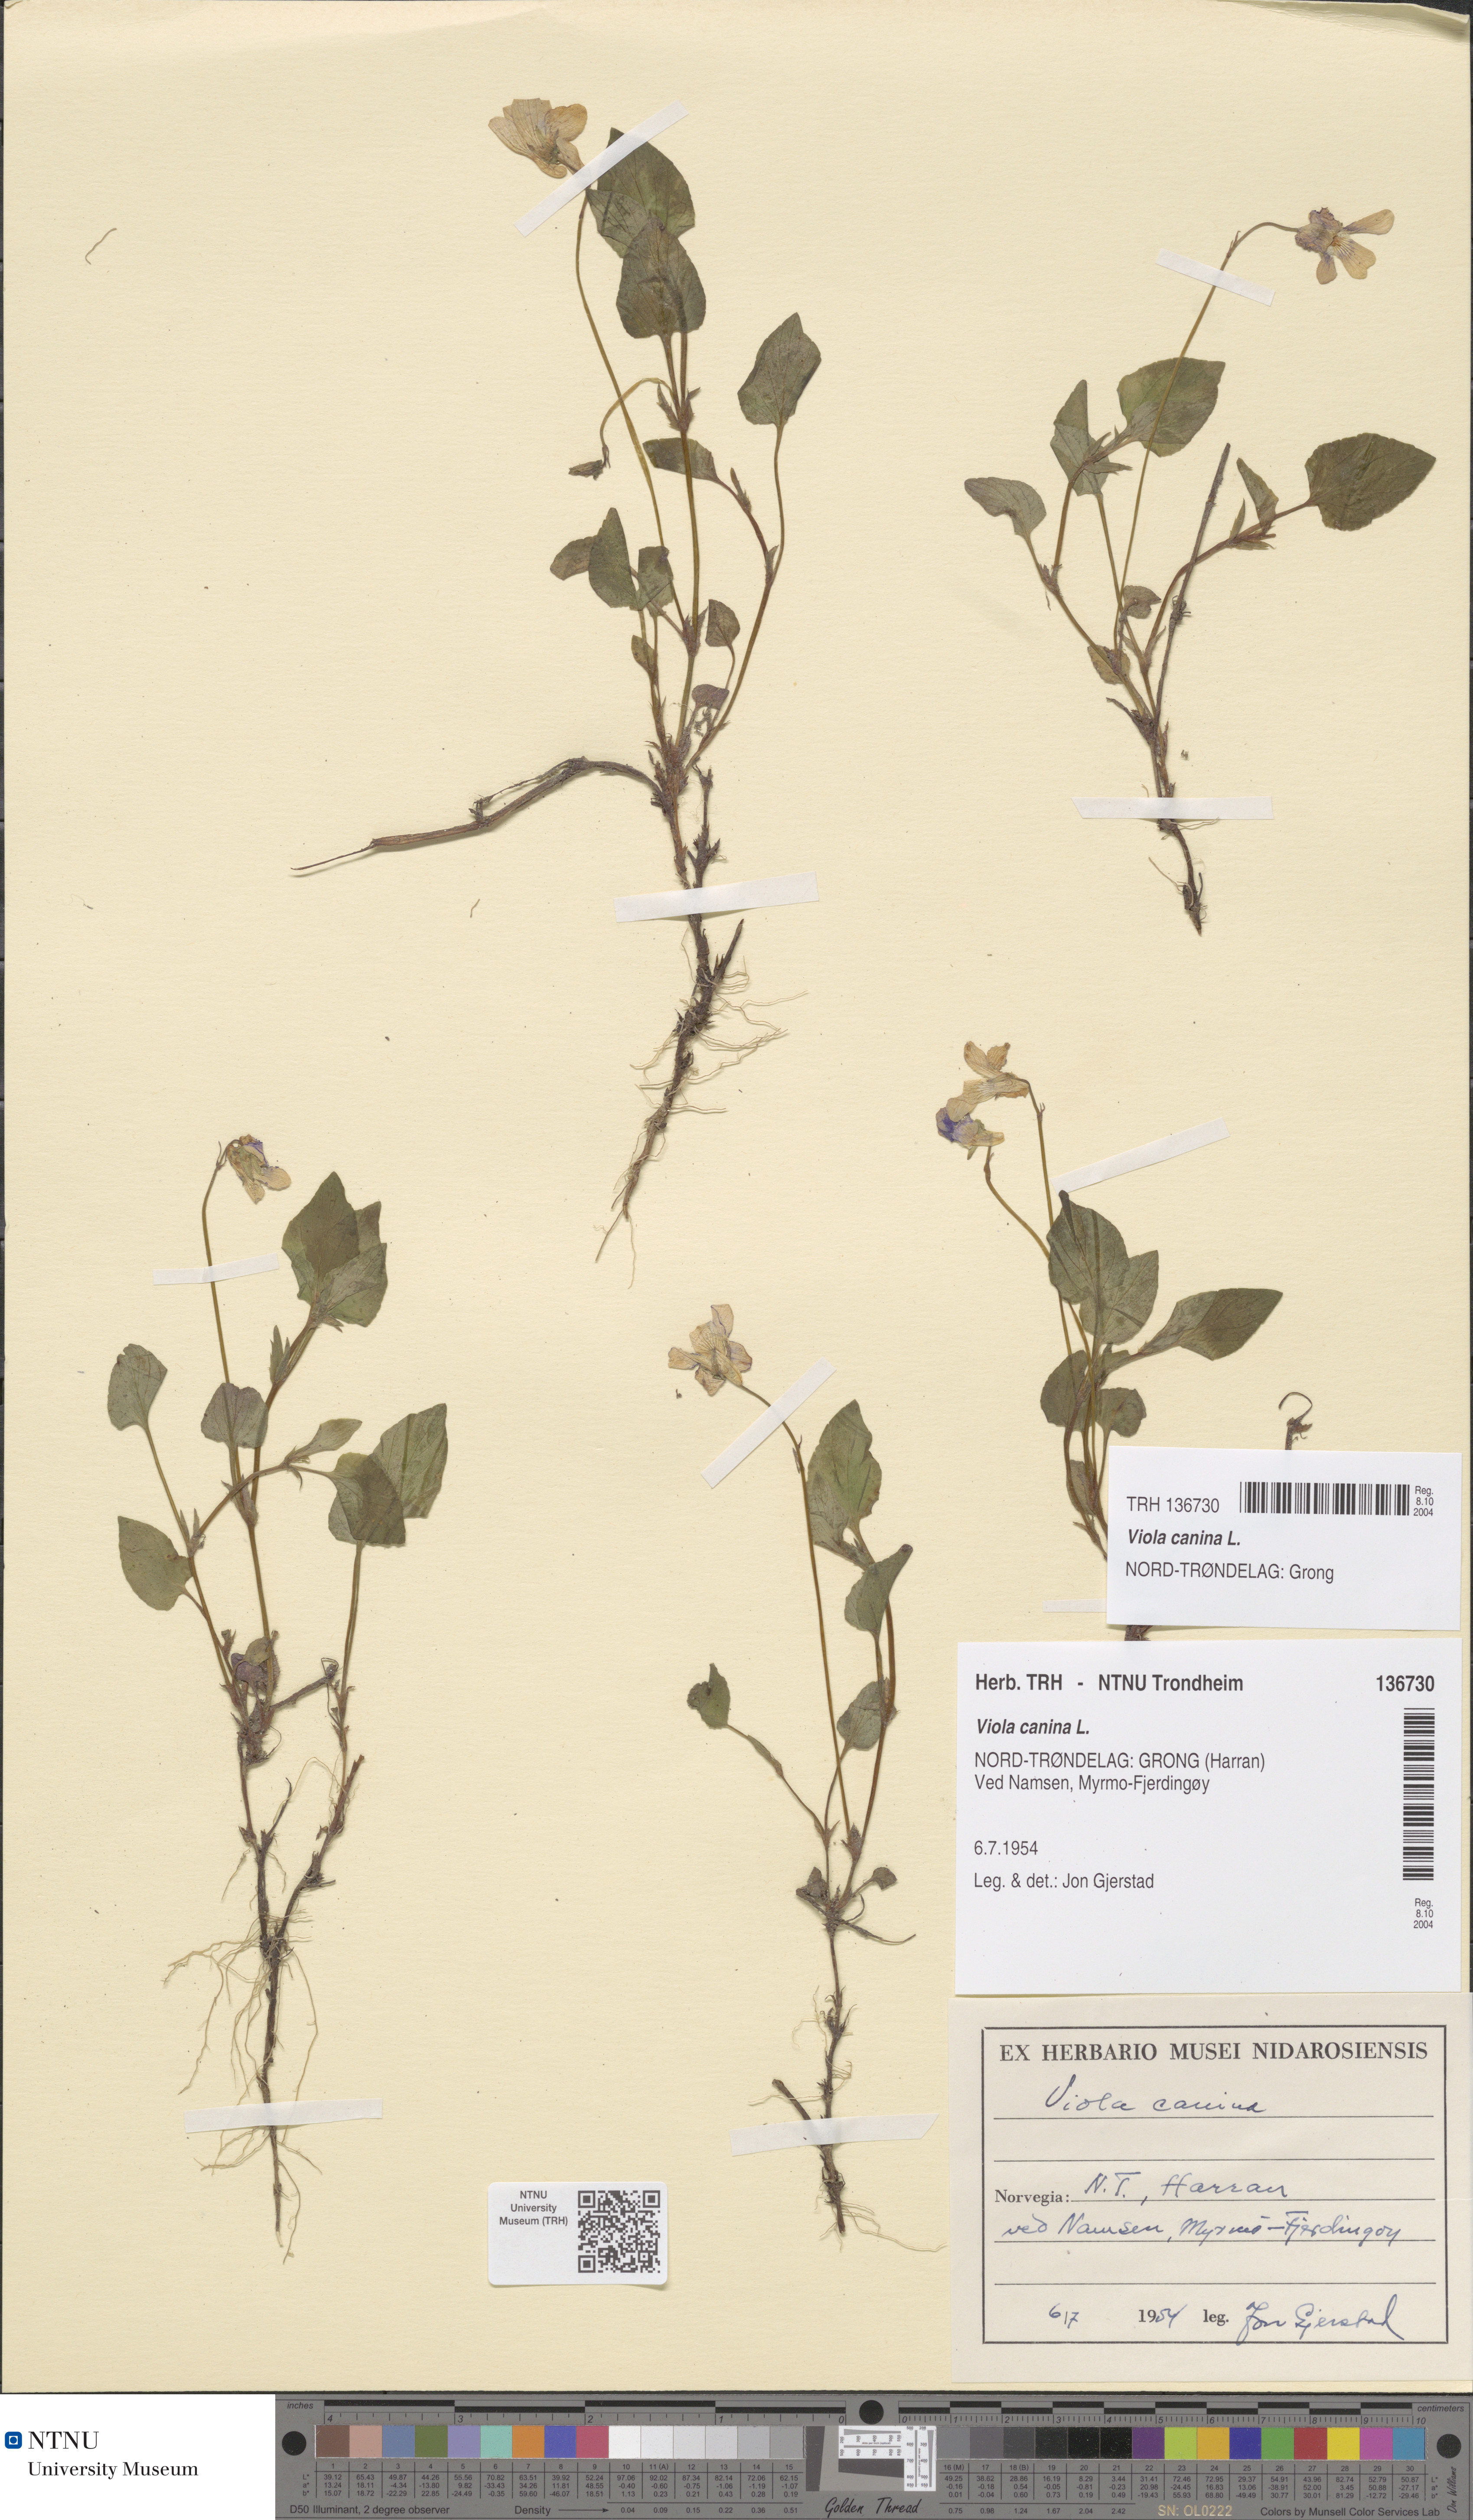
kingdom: Plantae
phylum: Tracheophyta
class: Magnoliopsida
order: Malpighiales
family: Violaceae
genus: Viola
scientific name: Viola canina
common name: Heath dog-violet
